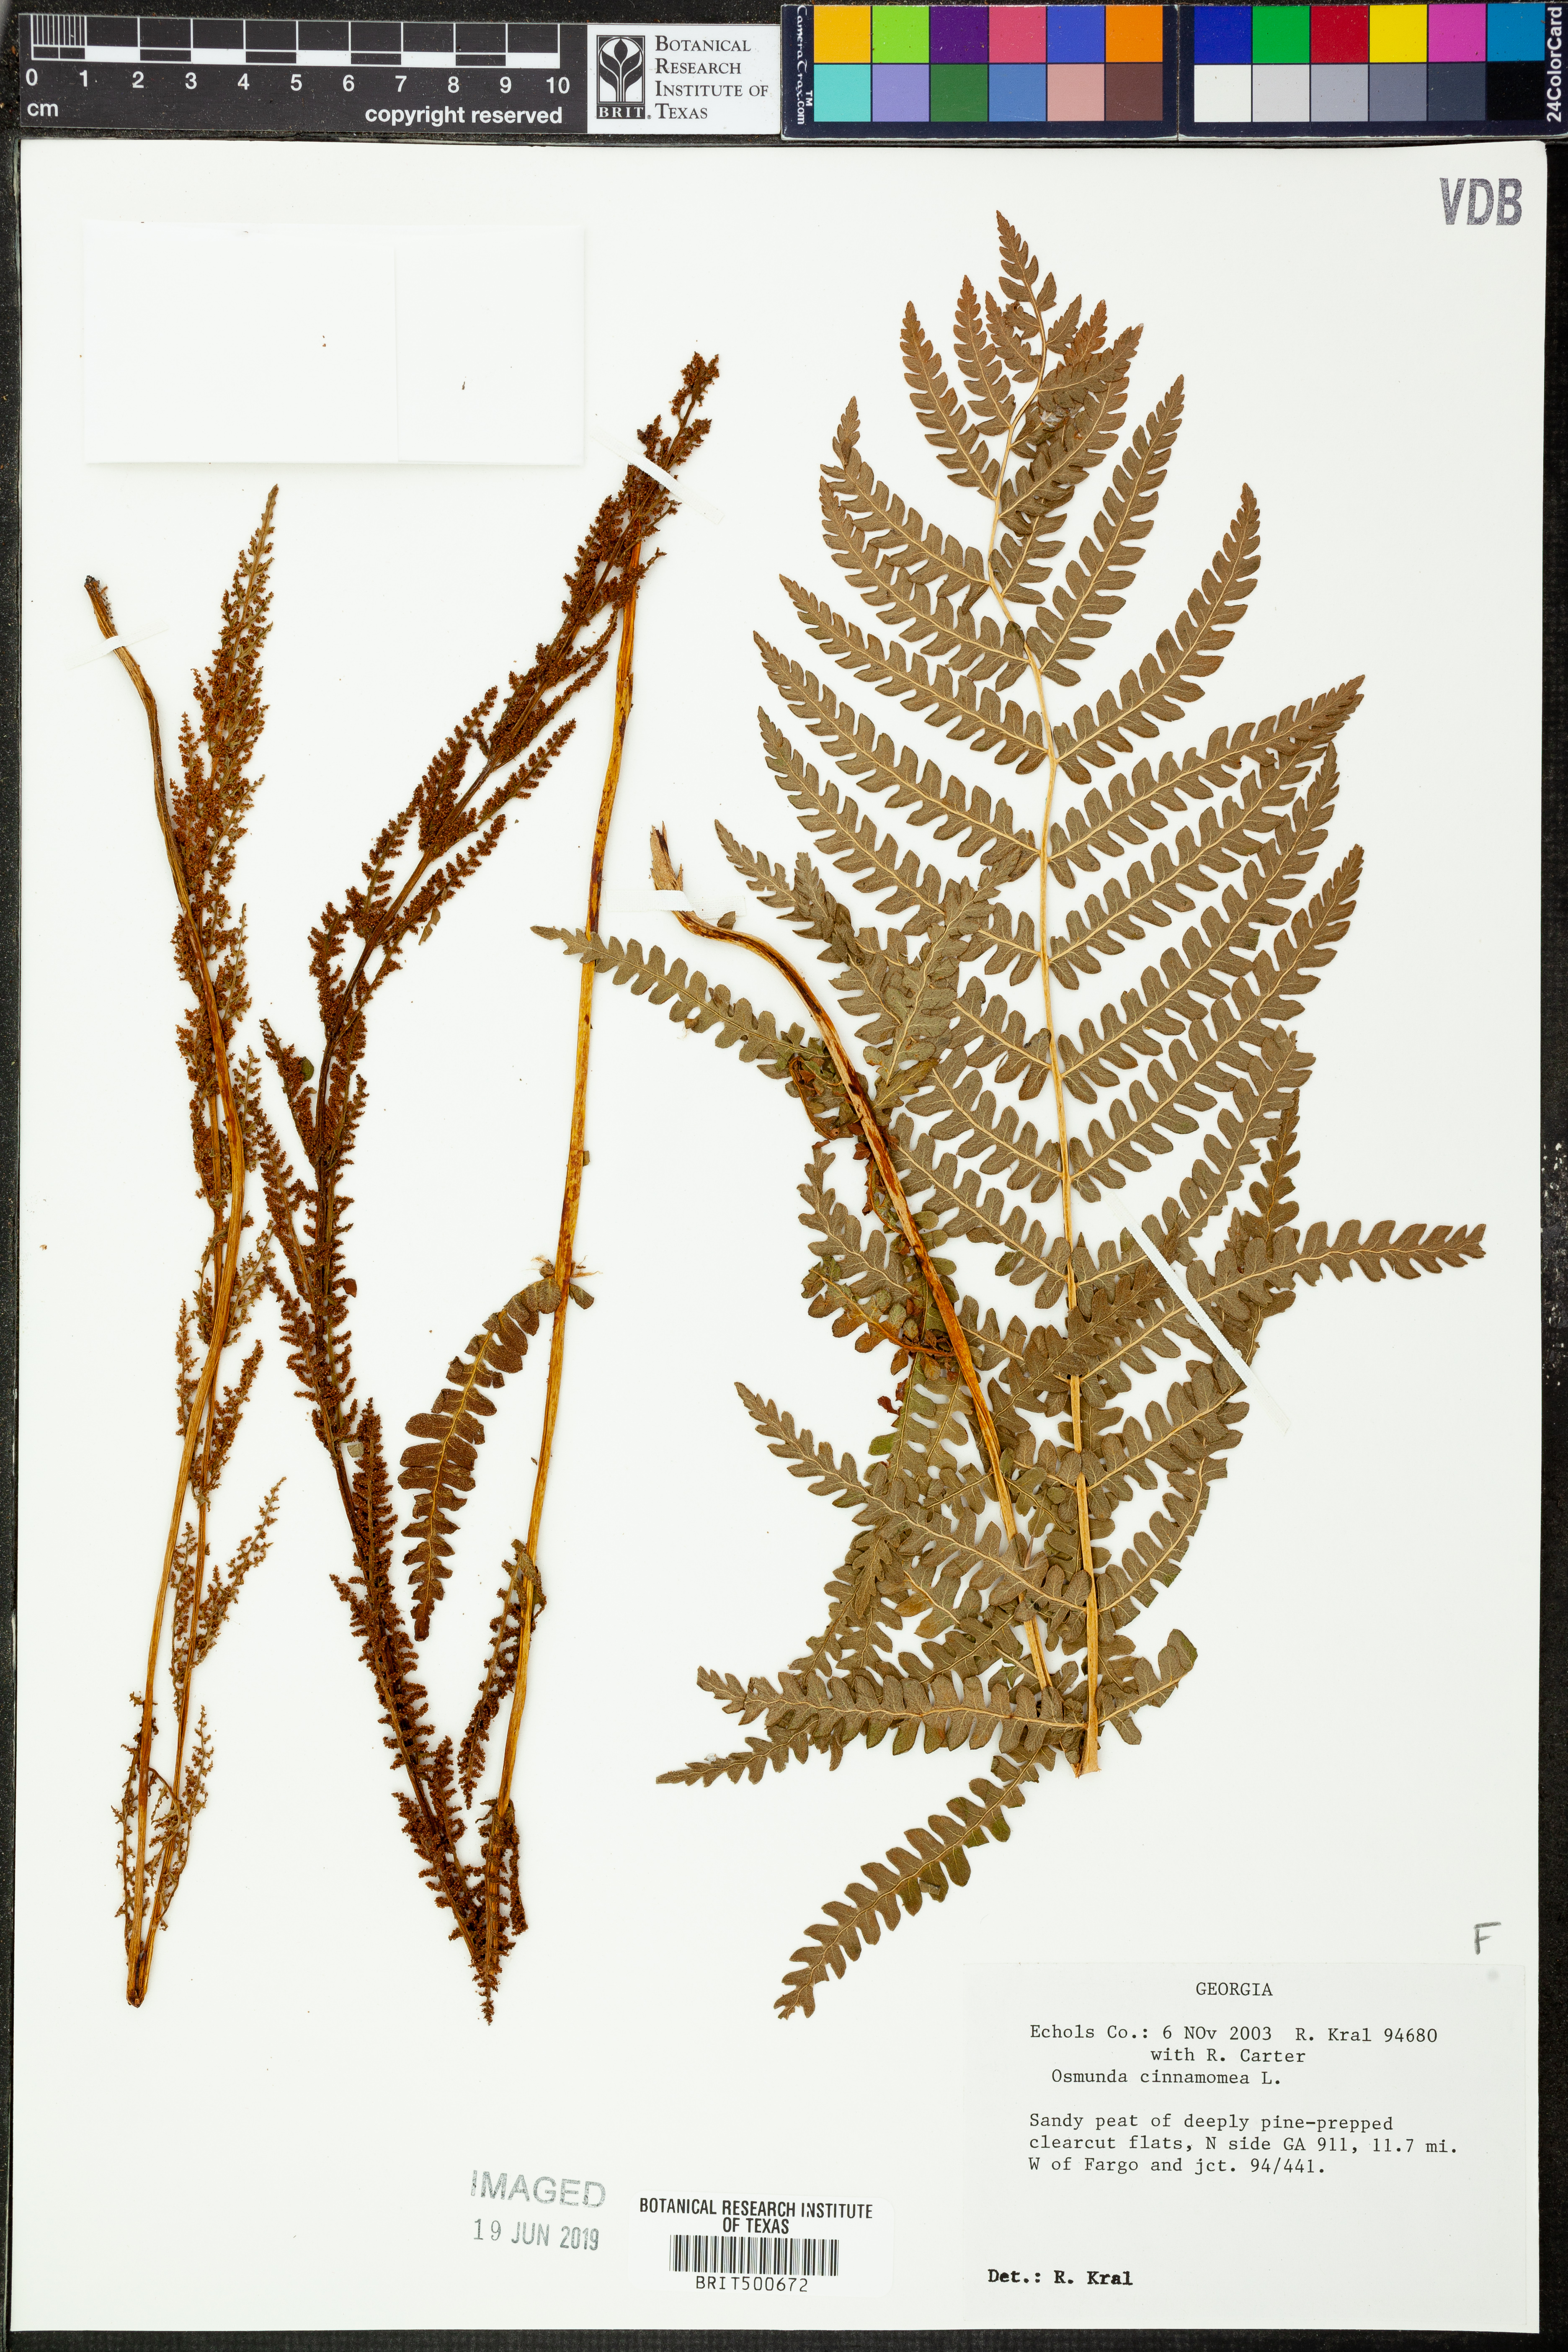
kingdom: Plantae
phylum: Tracheophyta
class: Polypodiopsida
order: Osmundales
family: Osmundaceae
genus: Osmundastrum
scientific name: Osmundastrum cinnamomeum
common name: Cinnamon fern
